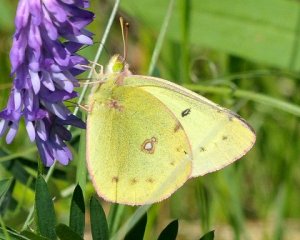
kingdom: Animalia
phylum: Arthropoda
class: Insecta
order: Lepidoptera
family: Pieridae
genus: Colias
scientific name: Colias philodice
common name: Clouded Sulphur
